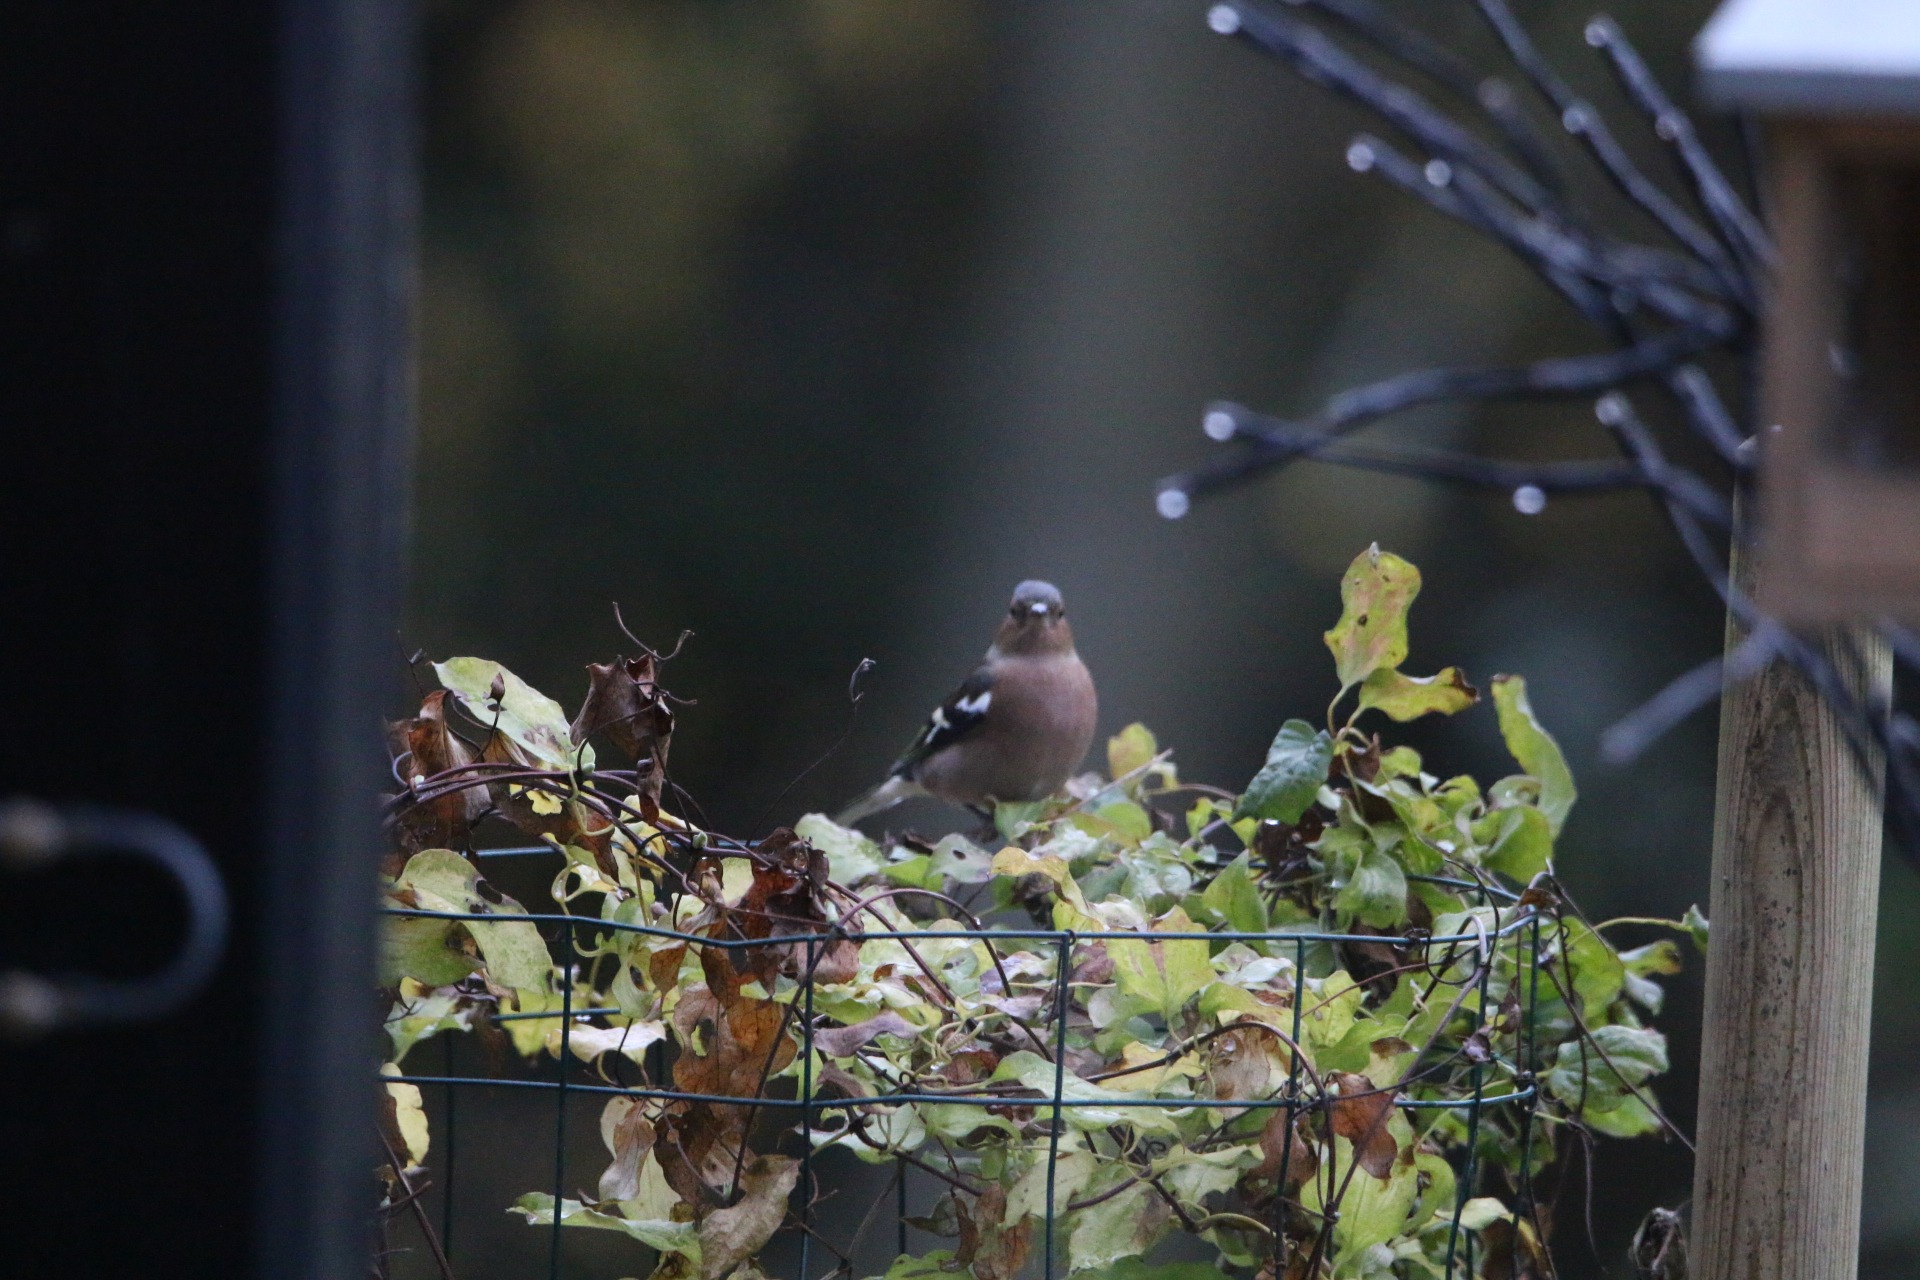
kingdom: Animalia
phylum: Chordata
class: Aves
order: Passeriformes
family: Fringillidae
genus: Fringilla
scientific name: Fringilla coelebs
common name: Bogfinke
